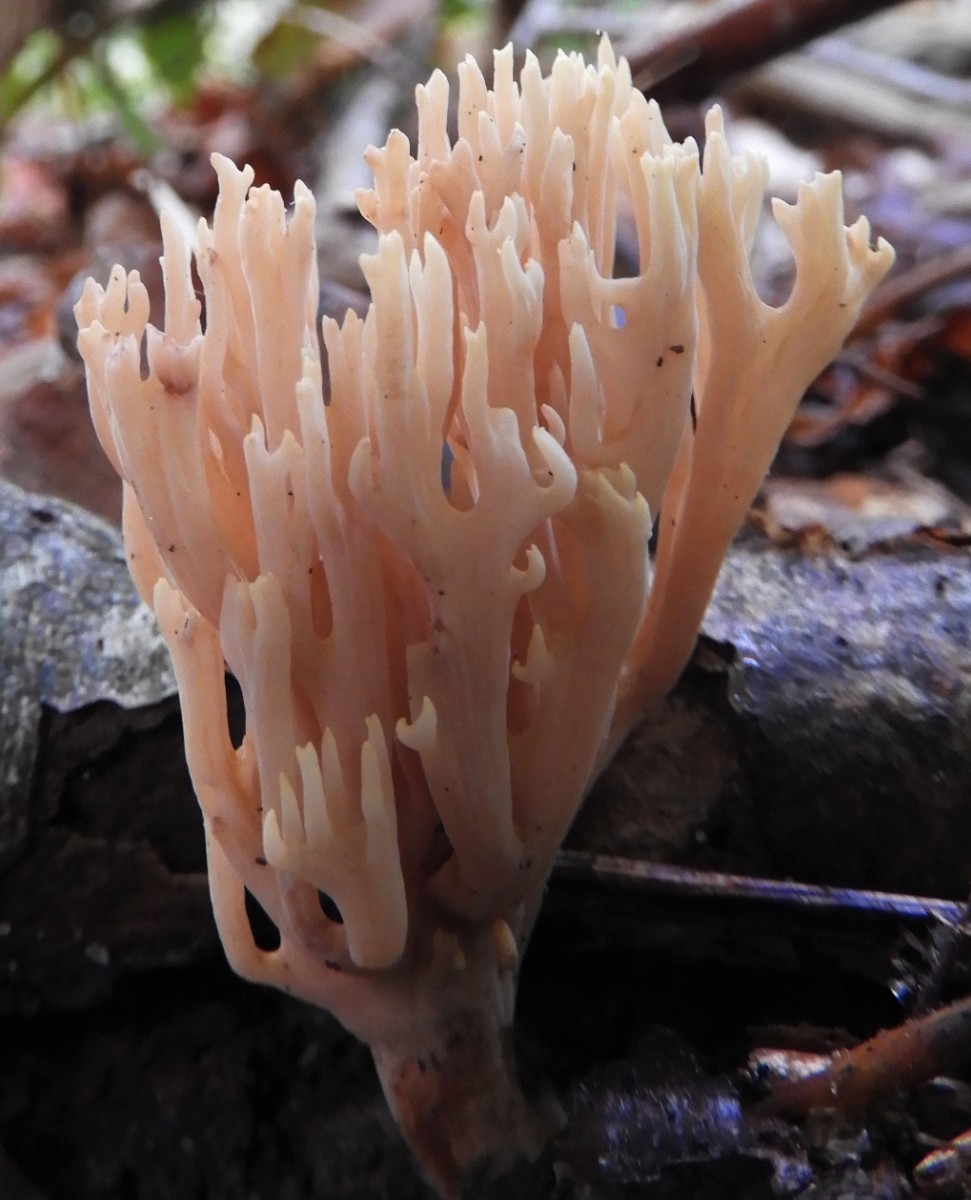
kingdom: Fungi
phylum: Basidiomycota
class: Agaricomycetes
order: Gomphales
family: Gomphaceae
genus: Ramaria
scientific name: Ramaria stricta
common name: rank koralsvamp
